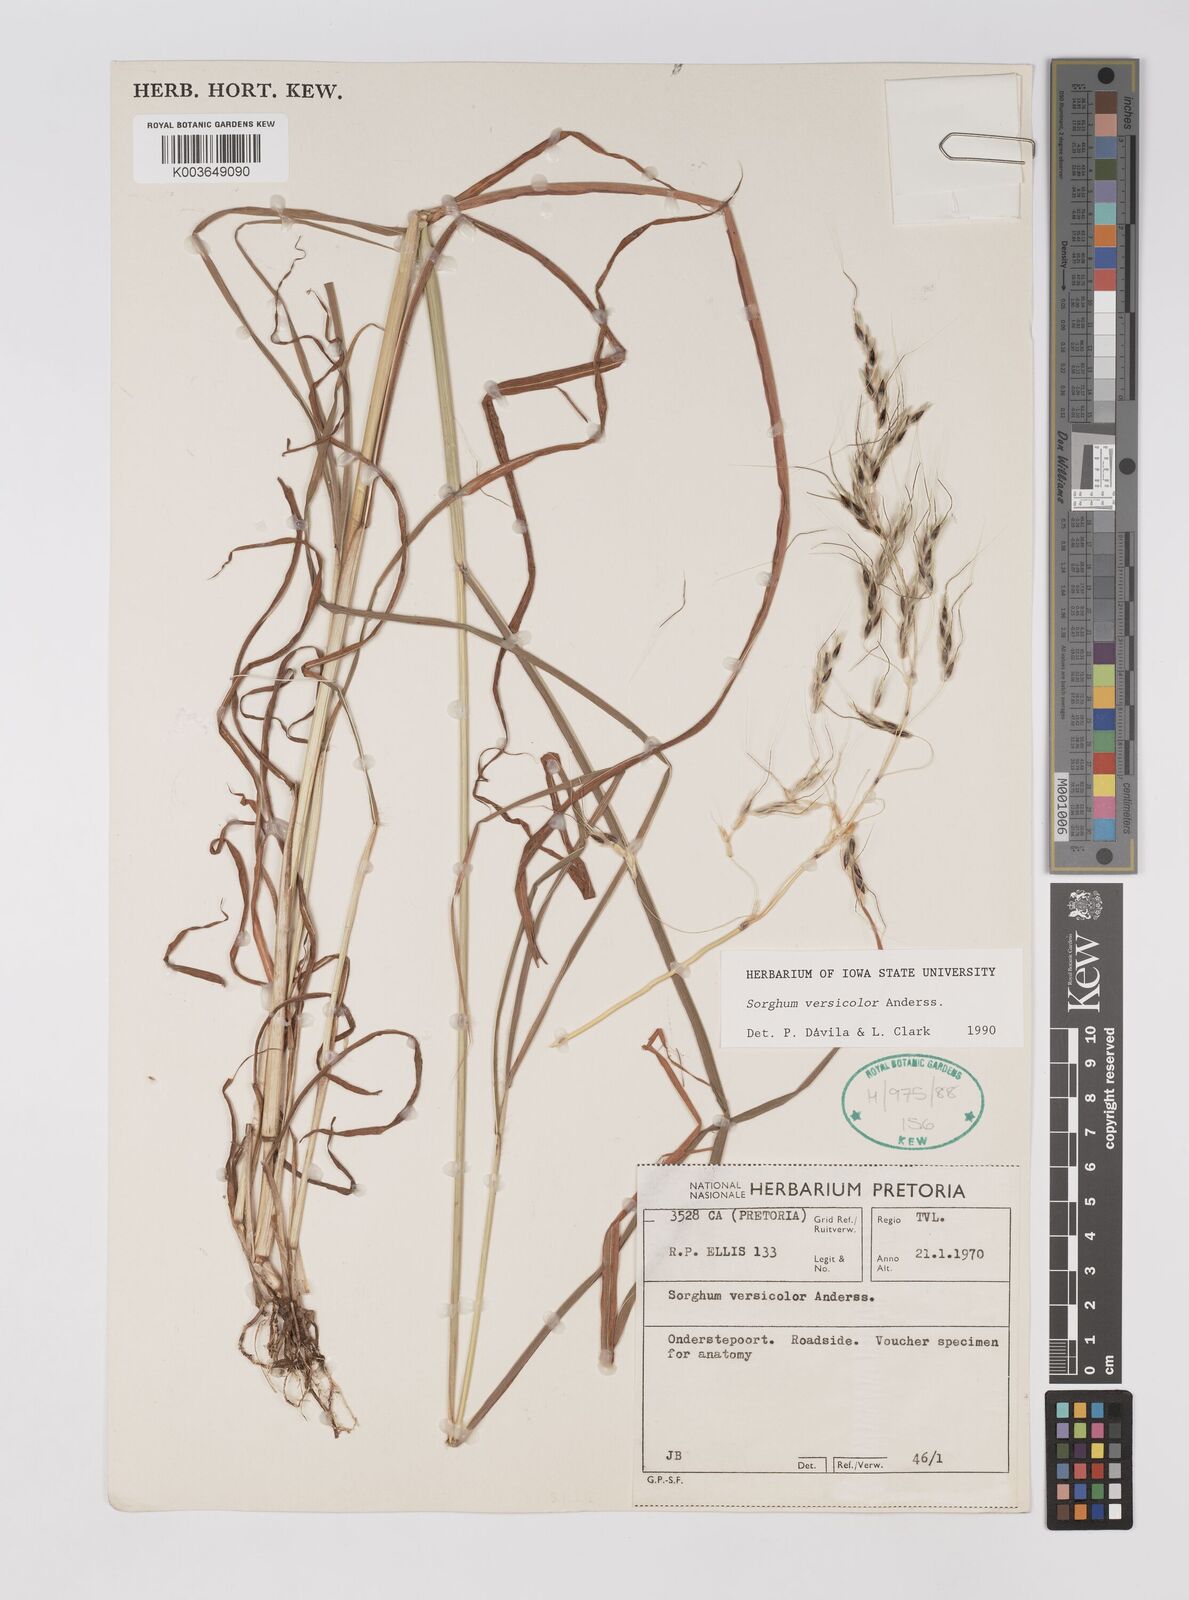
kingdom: Plantae
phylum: Tracheophyta
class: Liliopsida
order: Poales
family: Poaceae
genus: Sarga
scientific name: Sarga versicolor
